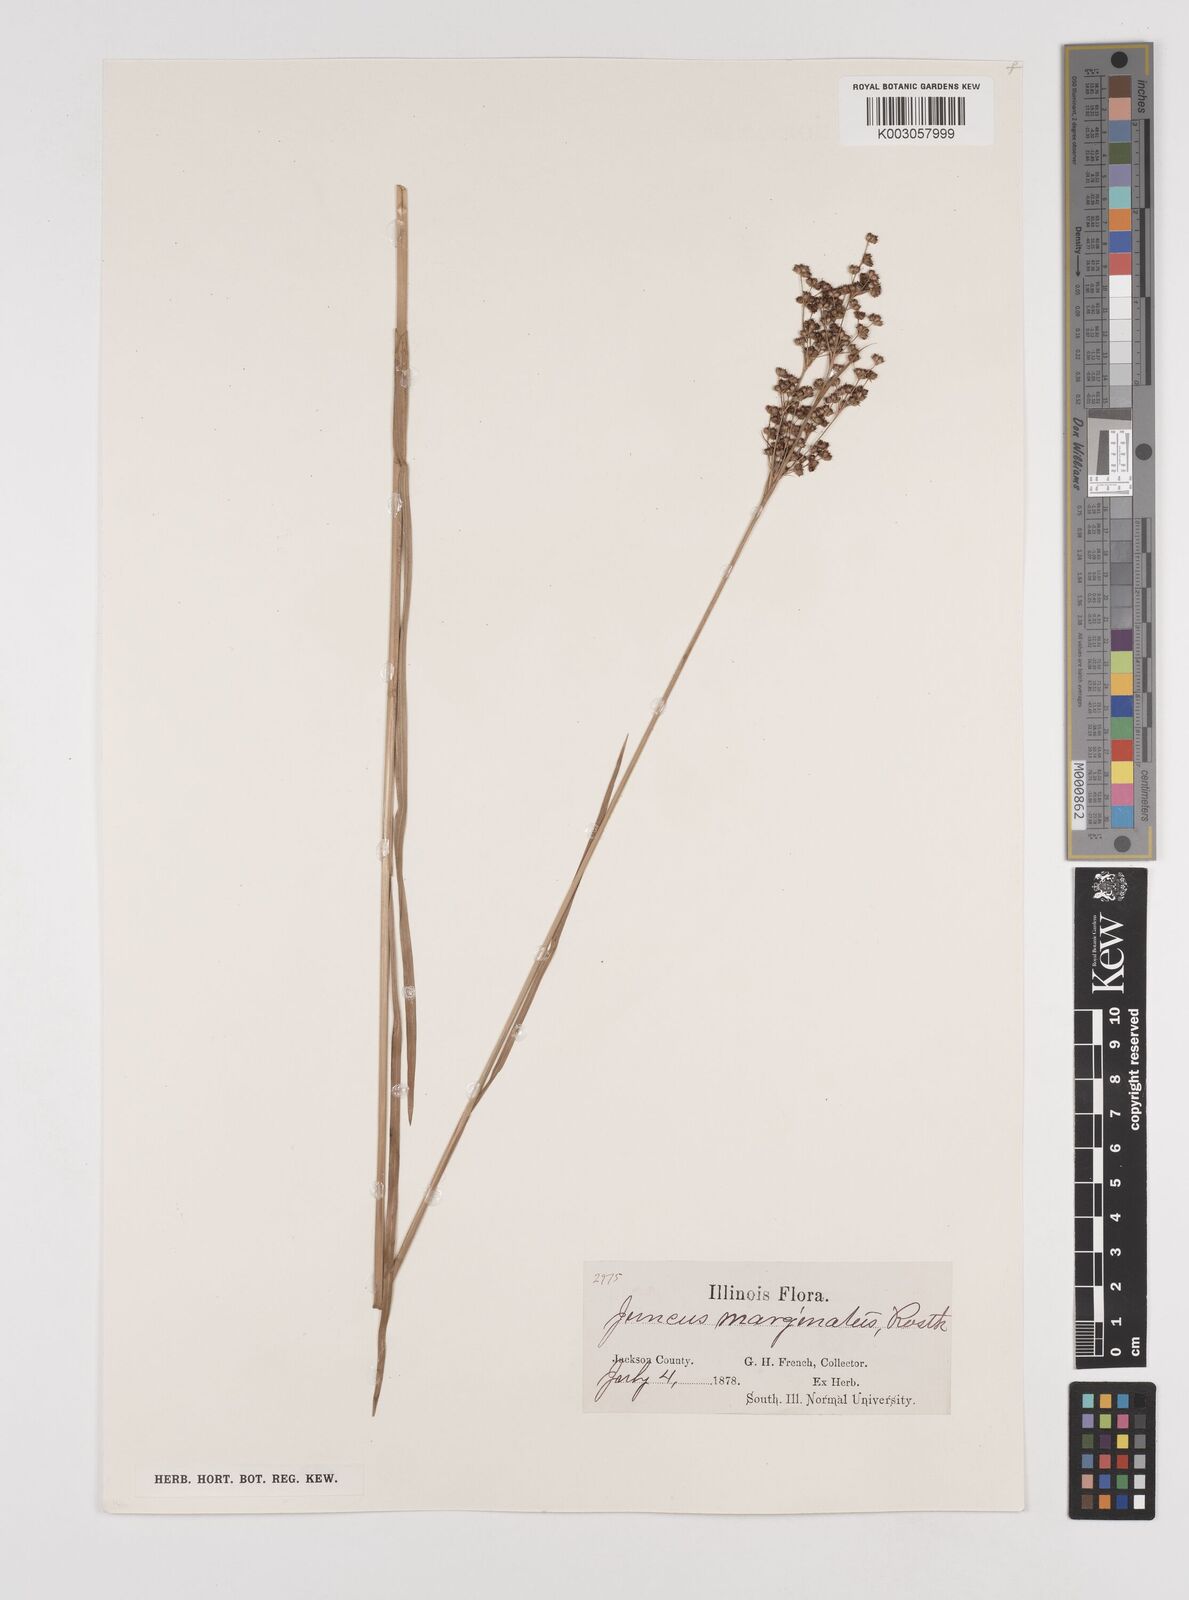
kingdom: Plantae
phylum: Tracheophyta
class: Liliopsida
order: Poales
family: Juncaceae
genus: Juncus
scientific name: Juncus marginatus
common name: Grass-leaf rush
